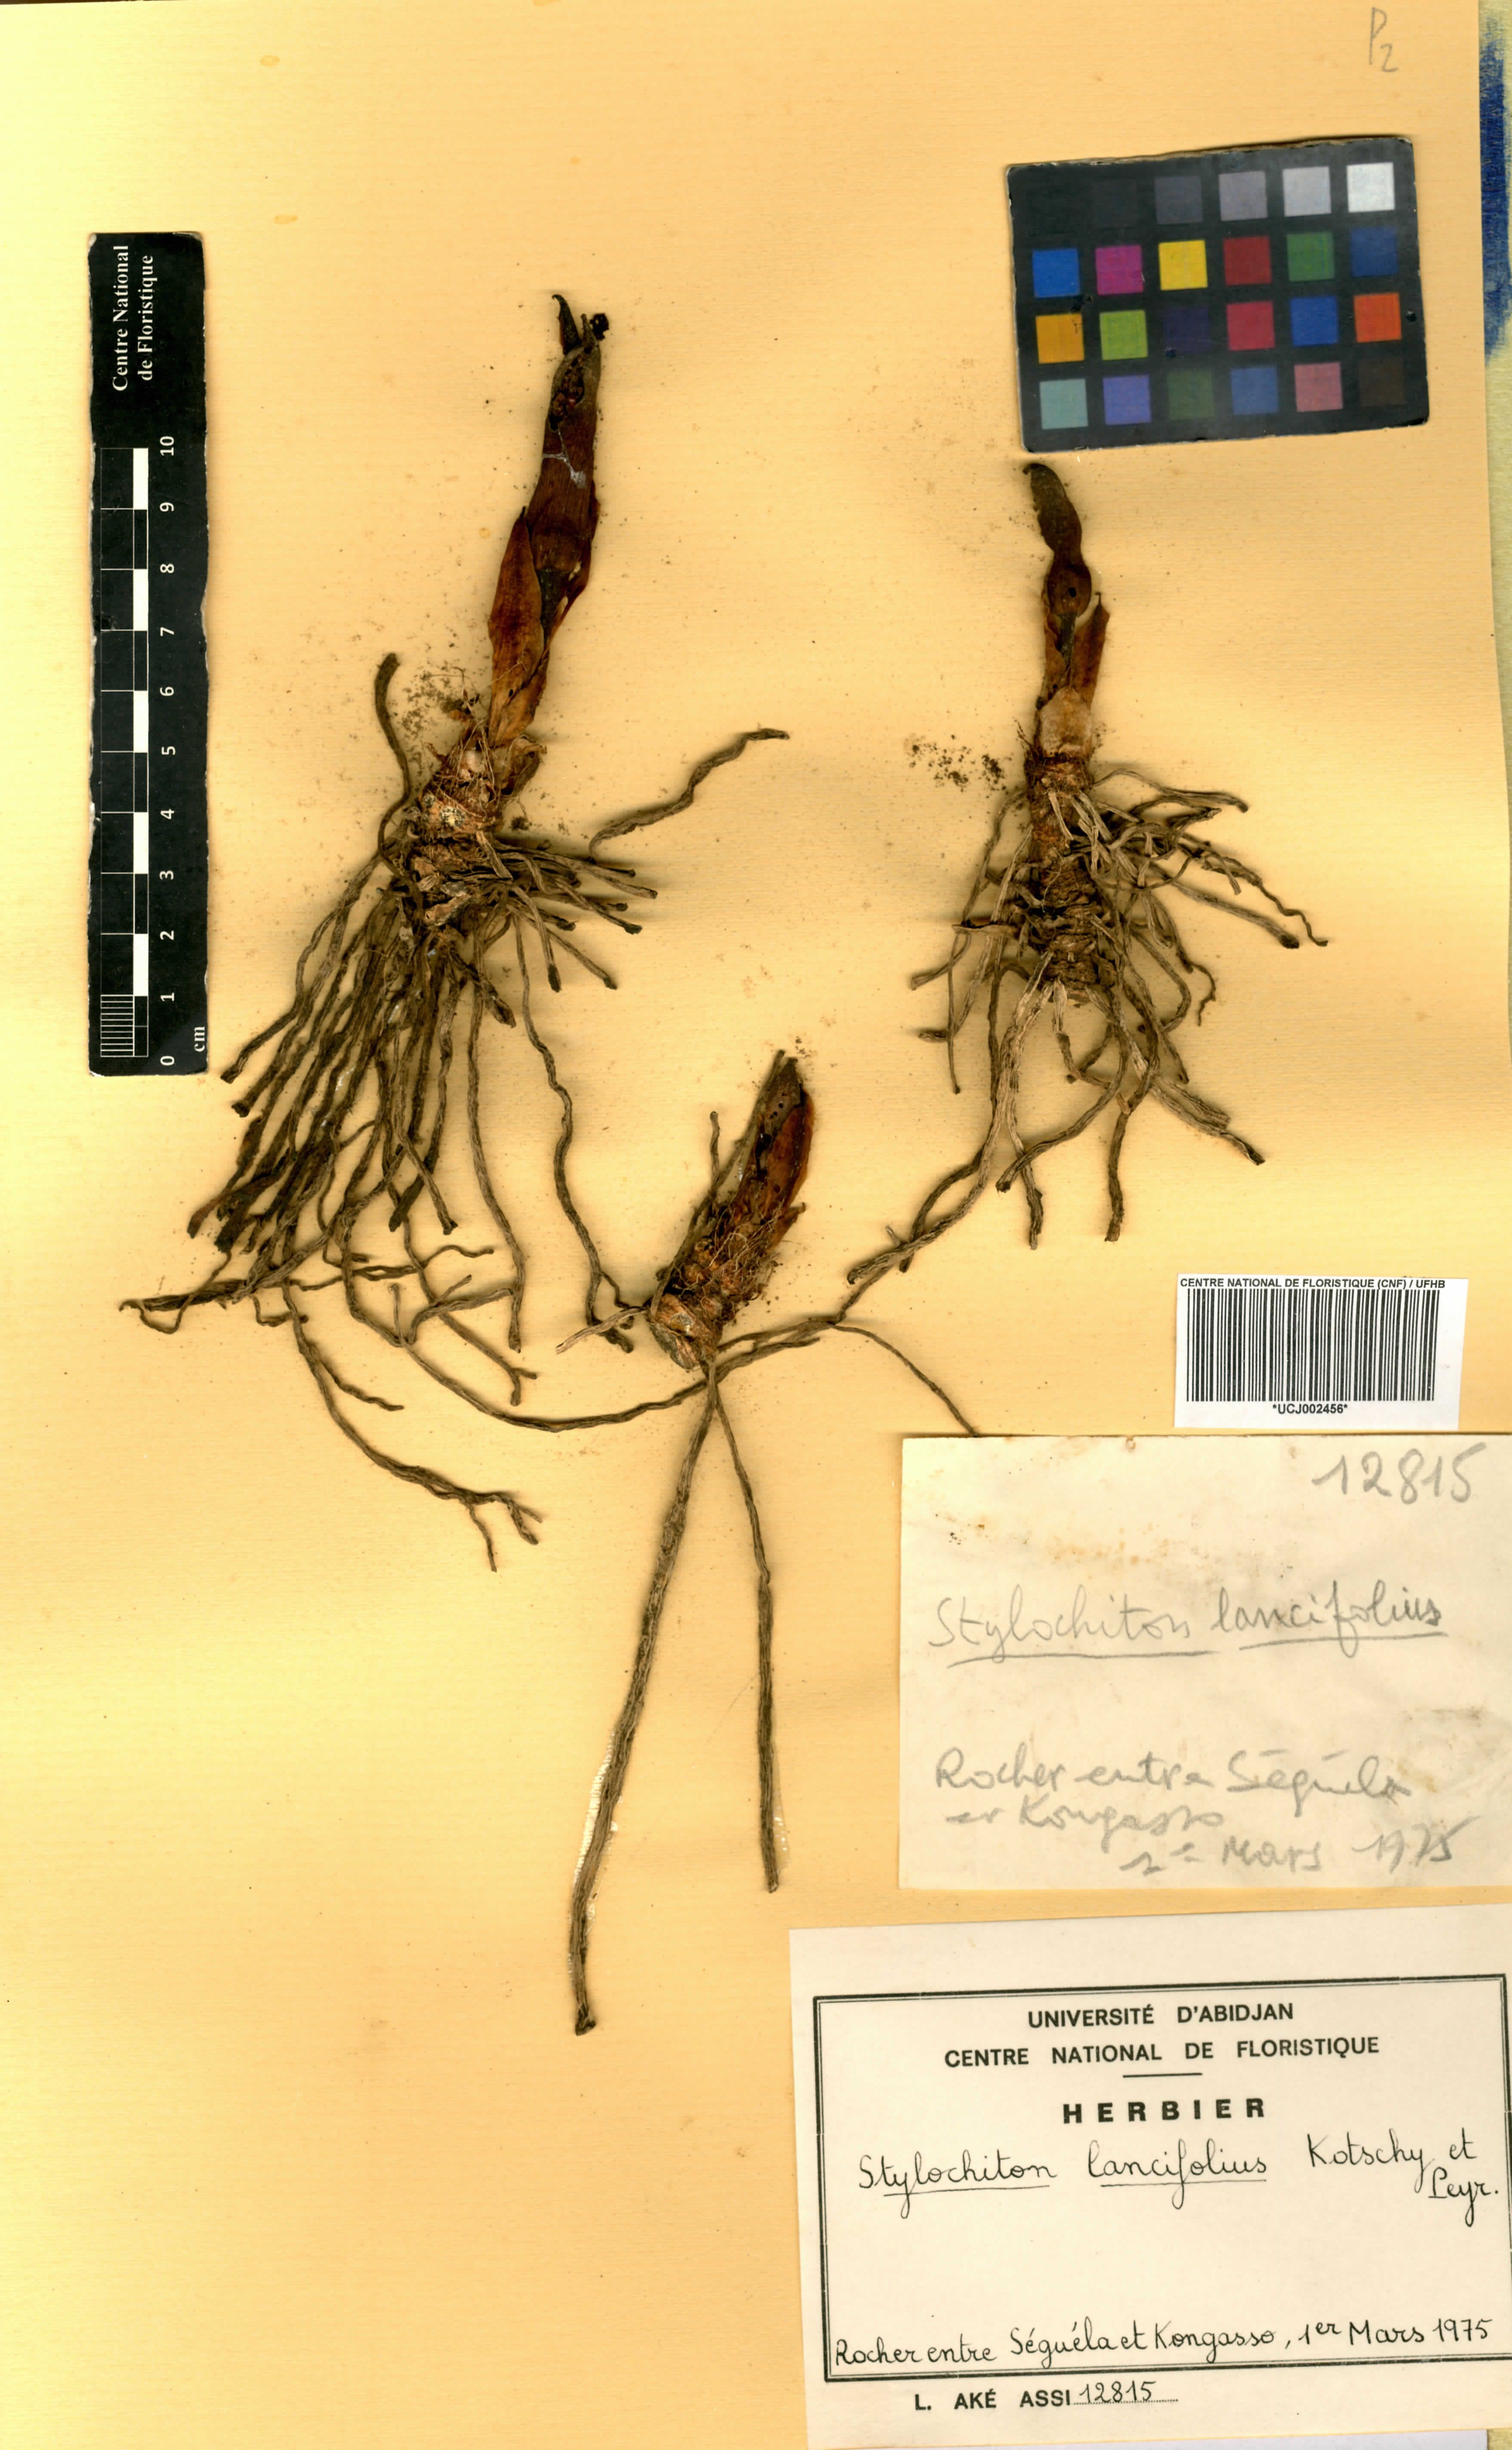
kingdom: Plantae
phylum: Tracheophyta
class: Liliopsida
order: Alismatales
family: Araceae
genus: Stylochaeton
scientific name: Stylochaeton lancifolium
